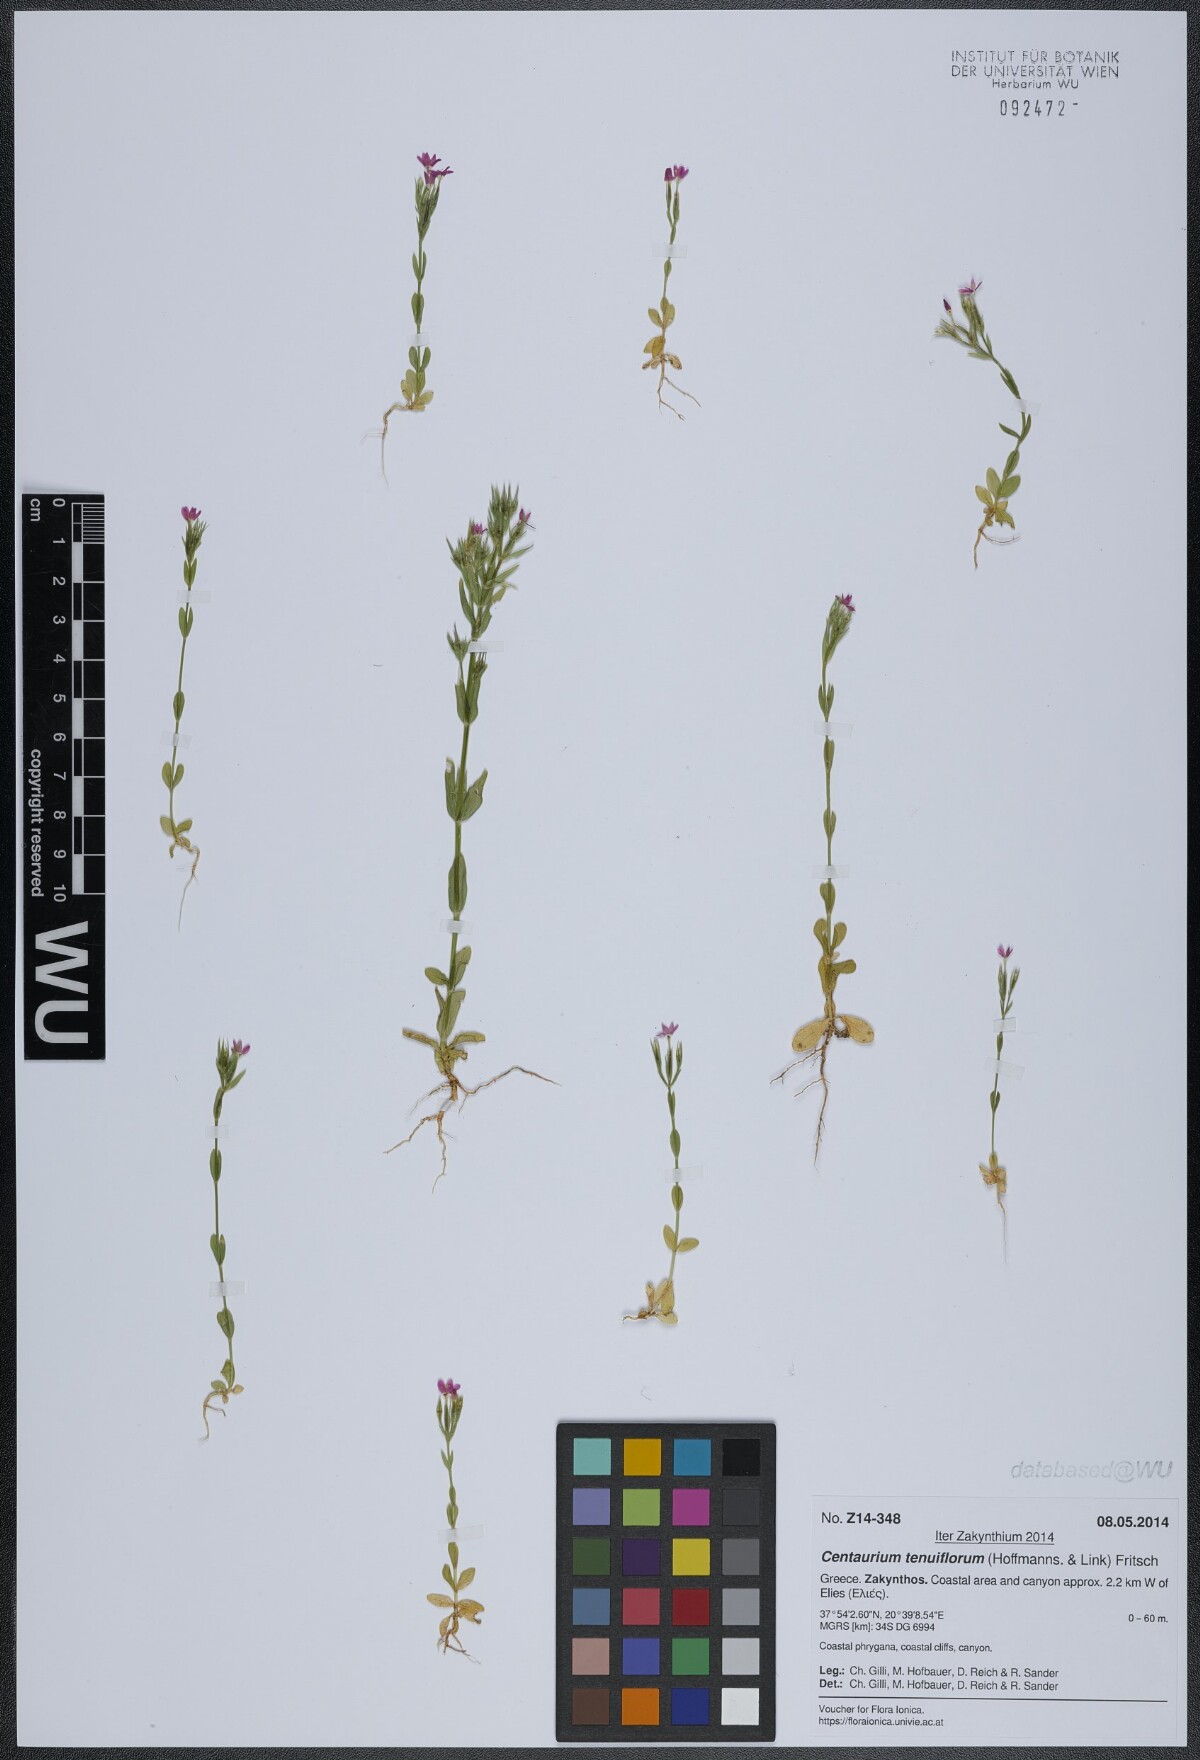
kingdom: Plantae
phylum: Tracheophyta
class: Magnoliopsida
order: Gentianales
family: Gentianaceae
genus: Centaurium
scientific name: Centaurium tenuiflorum
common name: Slender centaury
